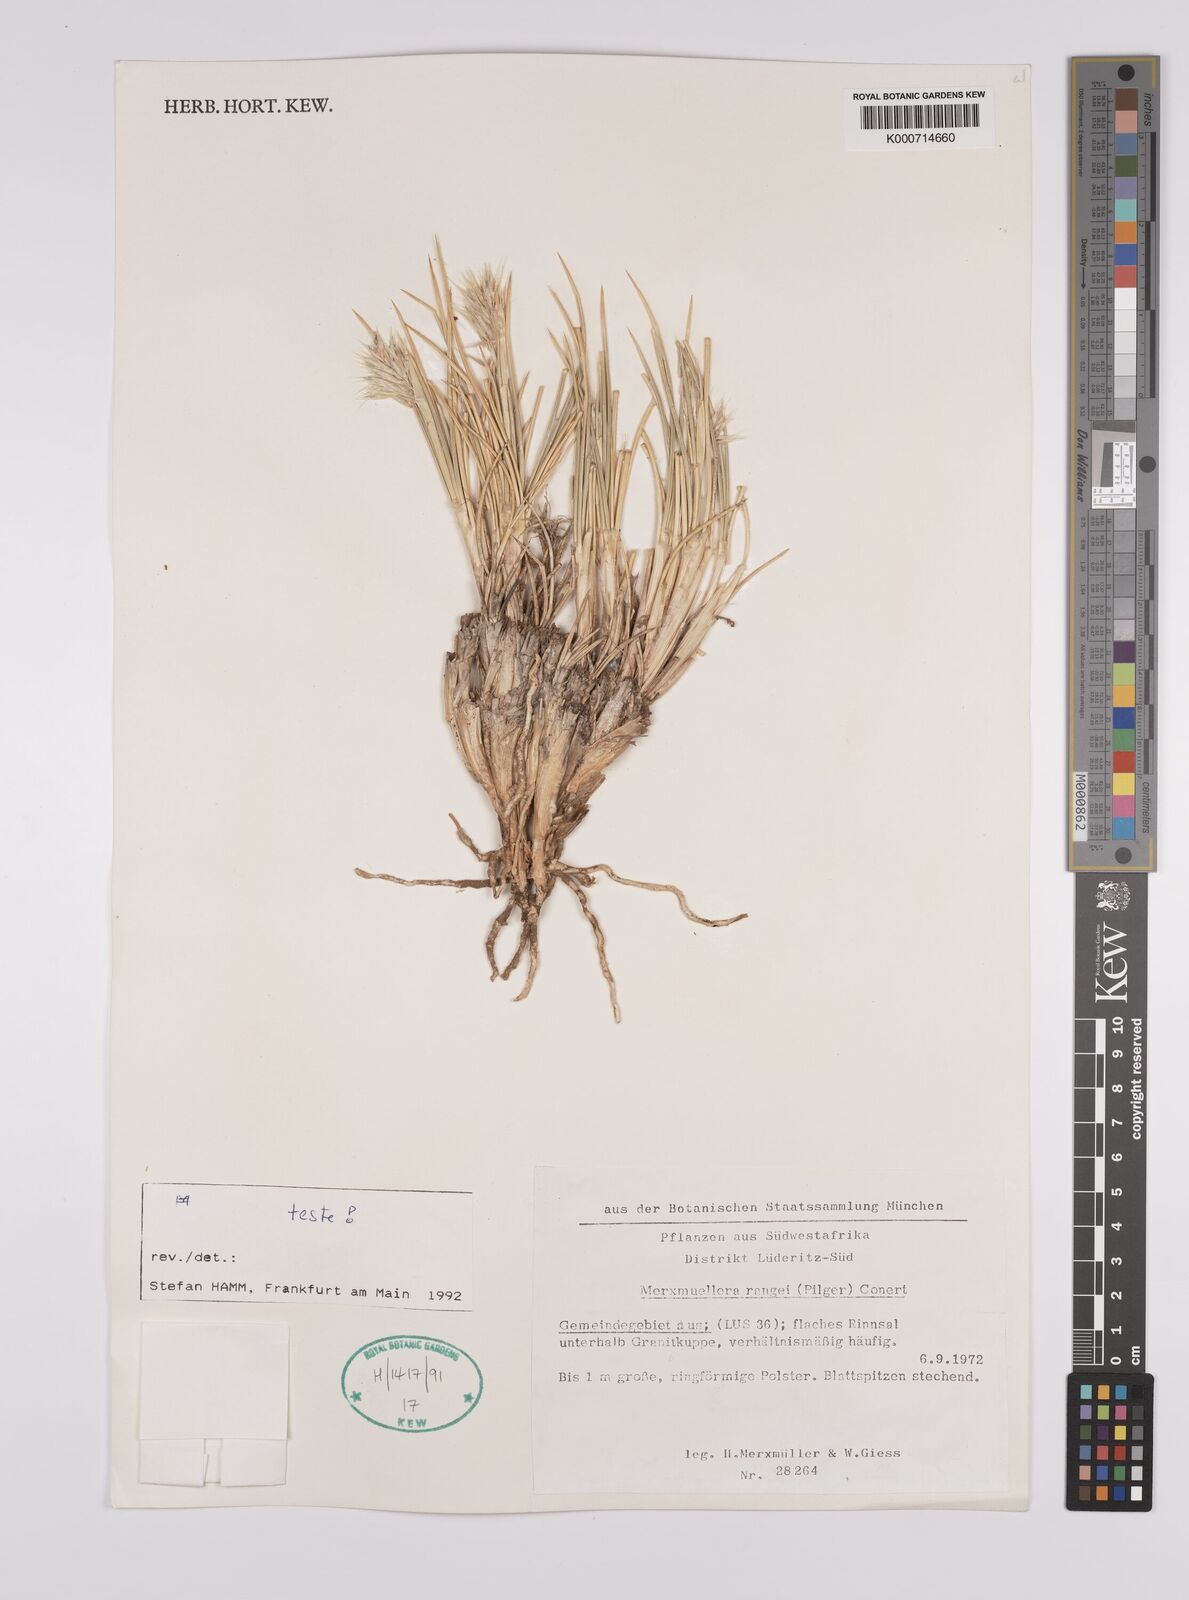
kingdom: Plantae
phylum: Tracheophyta
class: Liliopsida
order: Poales
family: Poaceae
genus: Rytidosperma
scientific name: Rytidosperma
